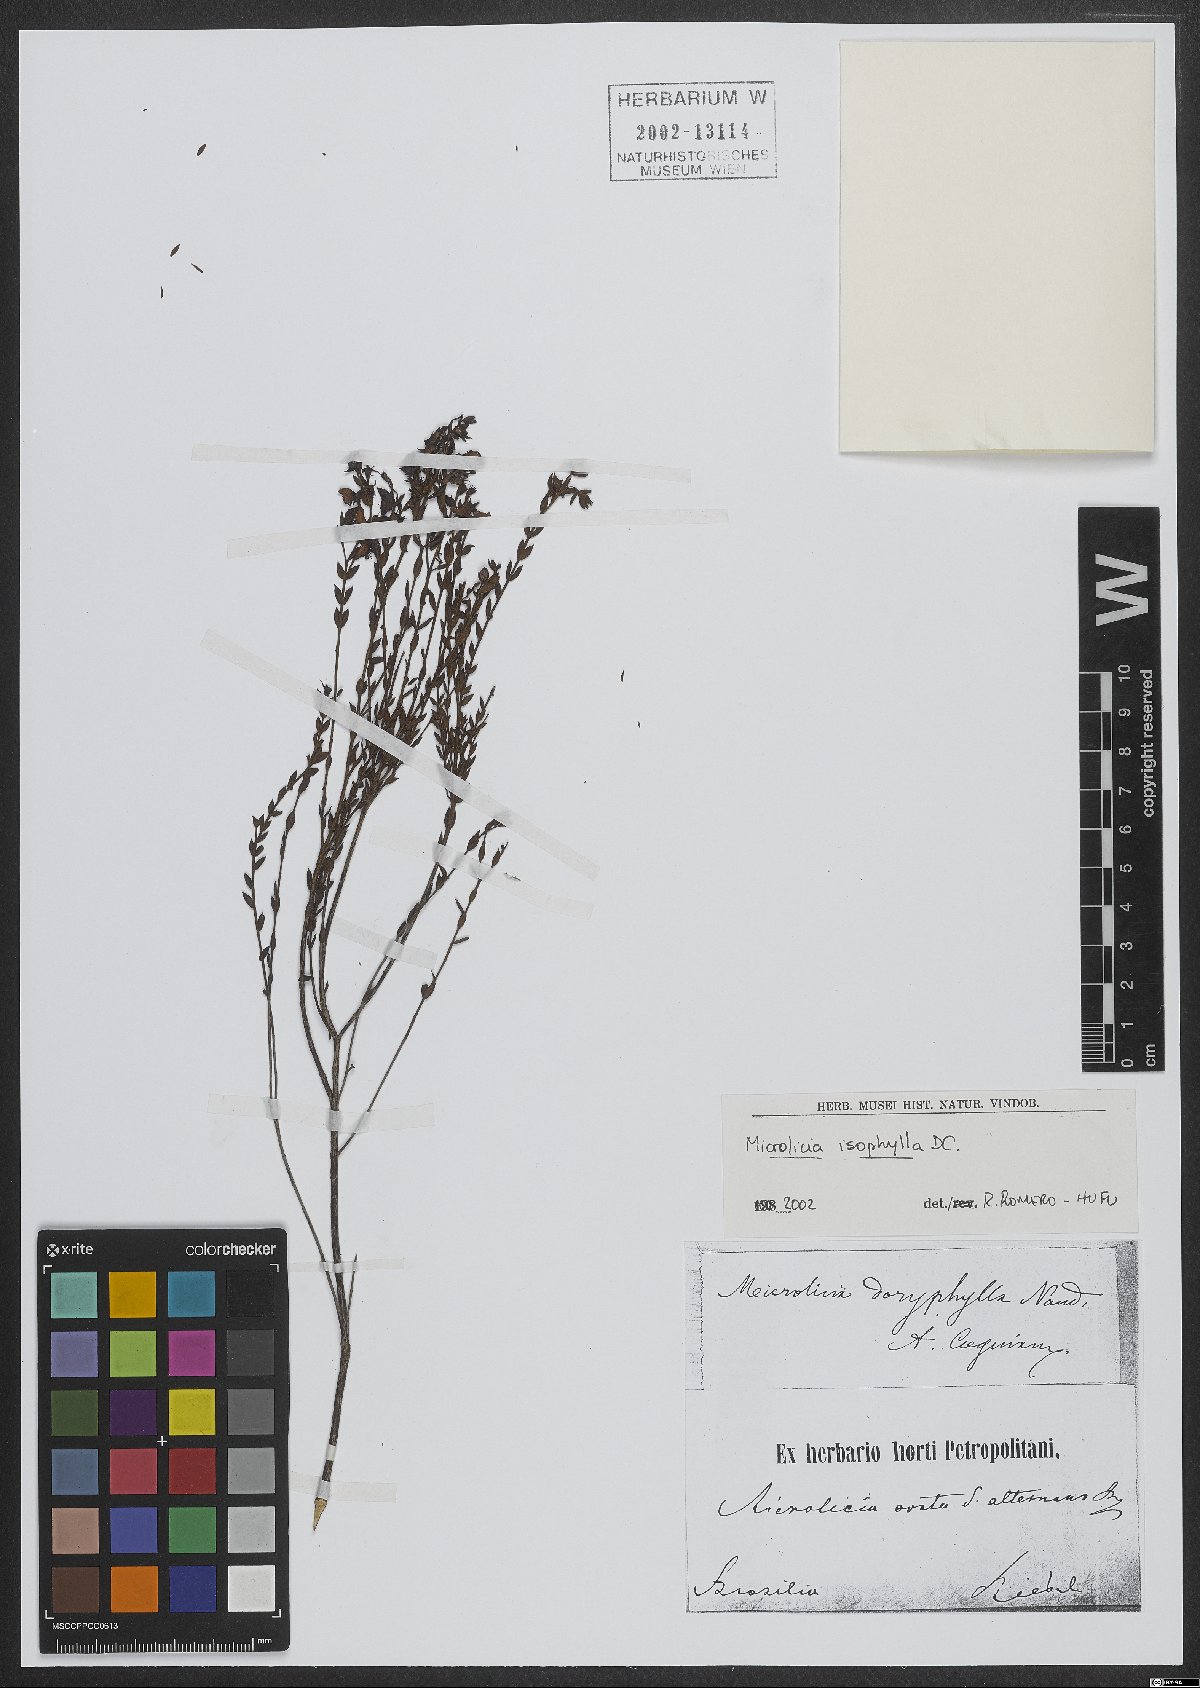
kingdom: Plantae
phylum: Tracheophyta
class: Magnoliopsida
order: Myrtales
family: Melastomataceae
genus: Microlicia
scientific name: Microlicia isophylla
